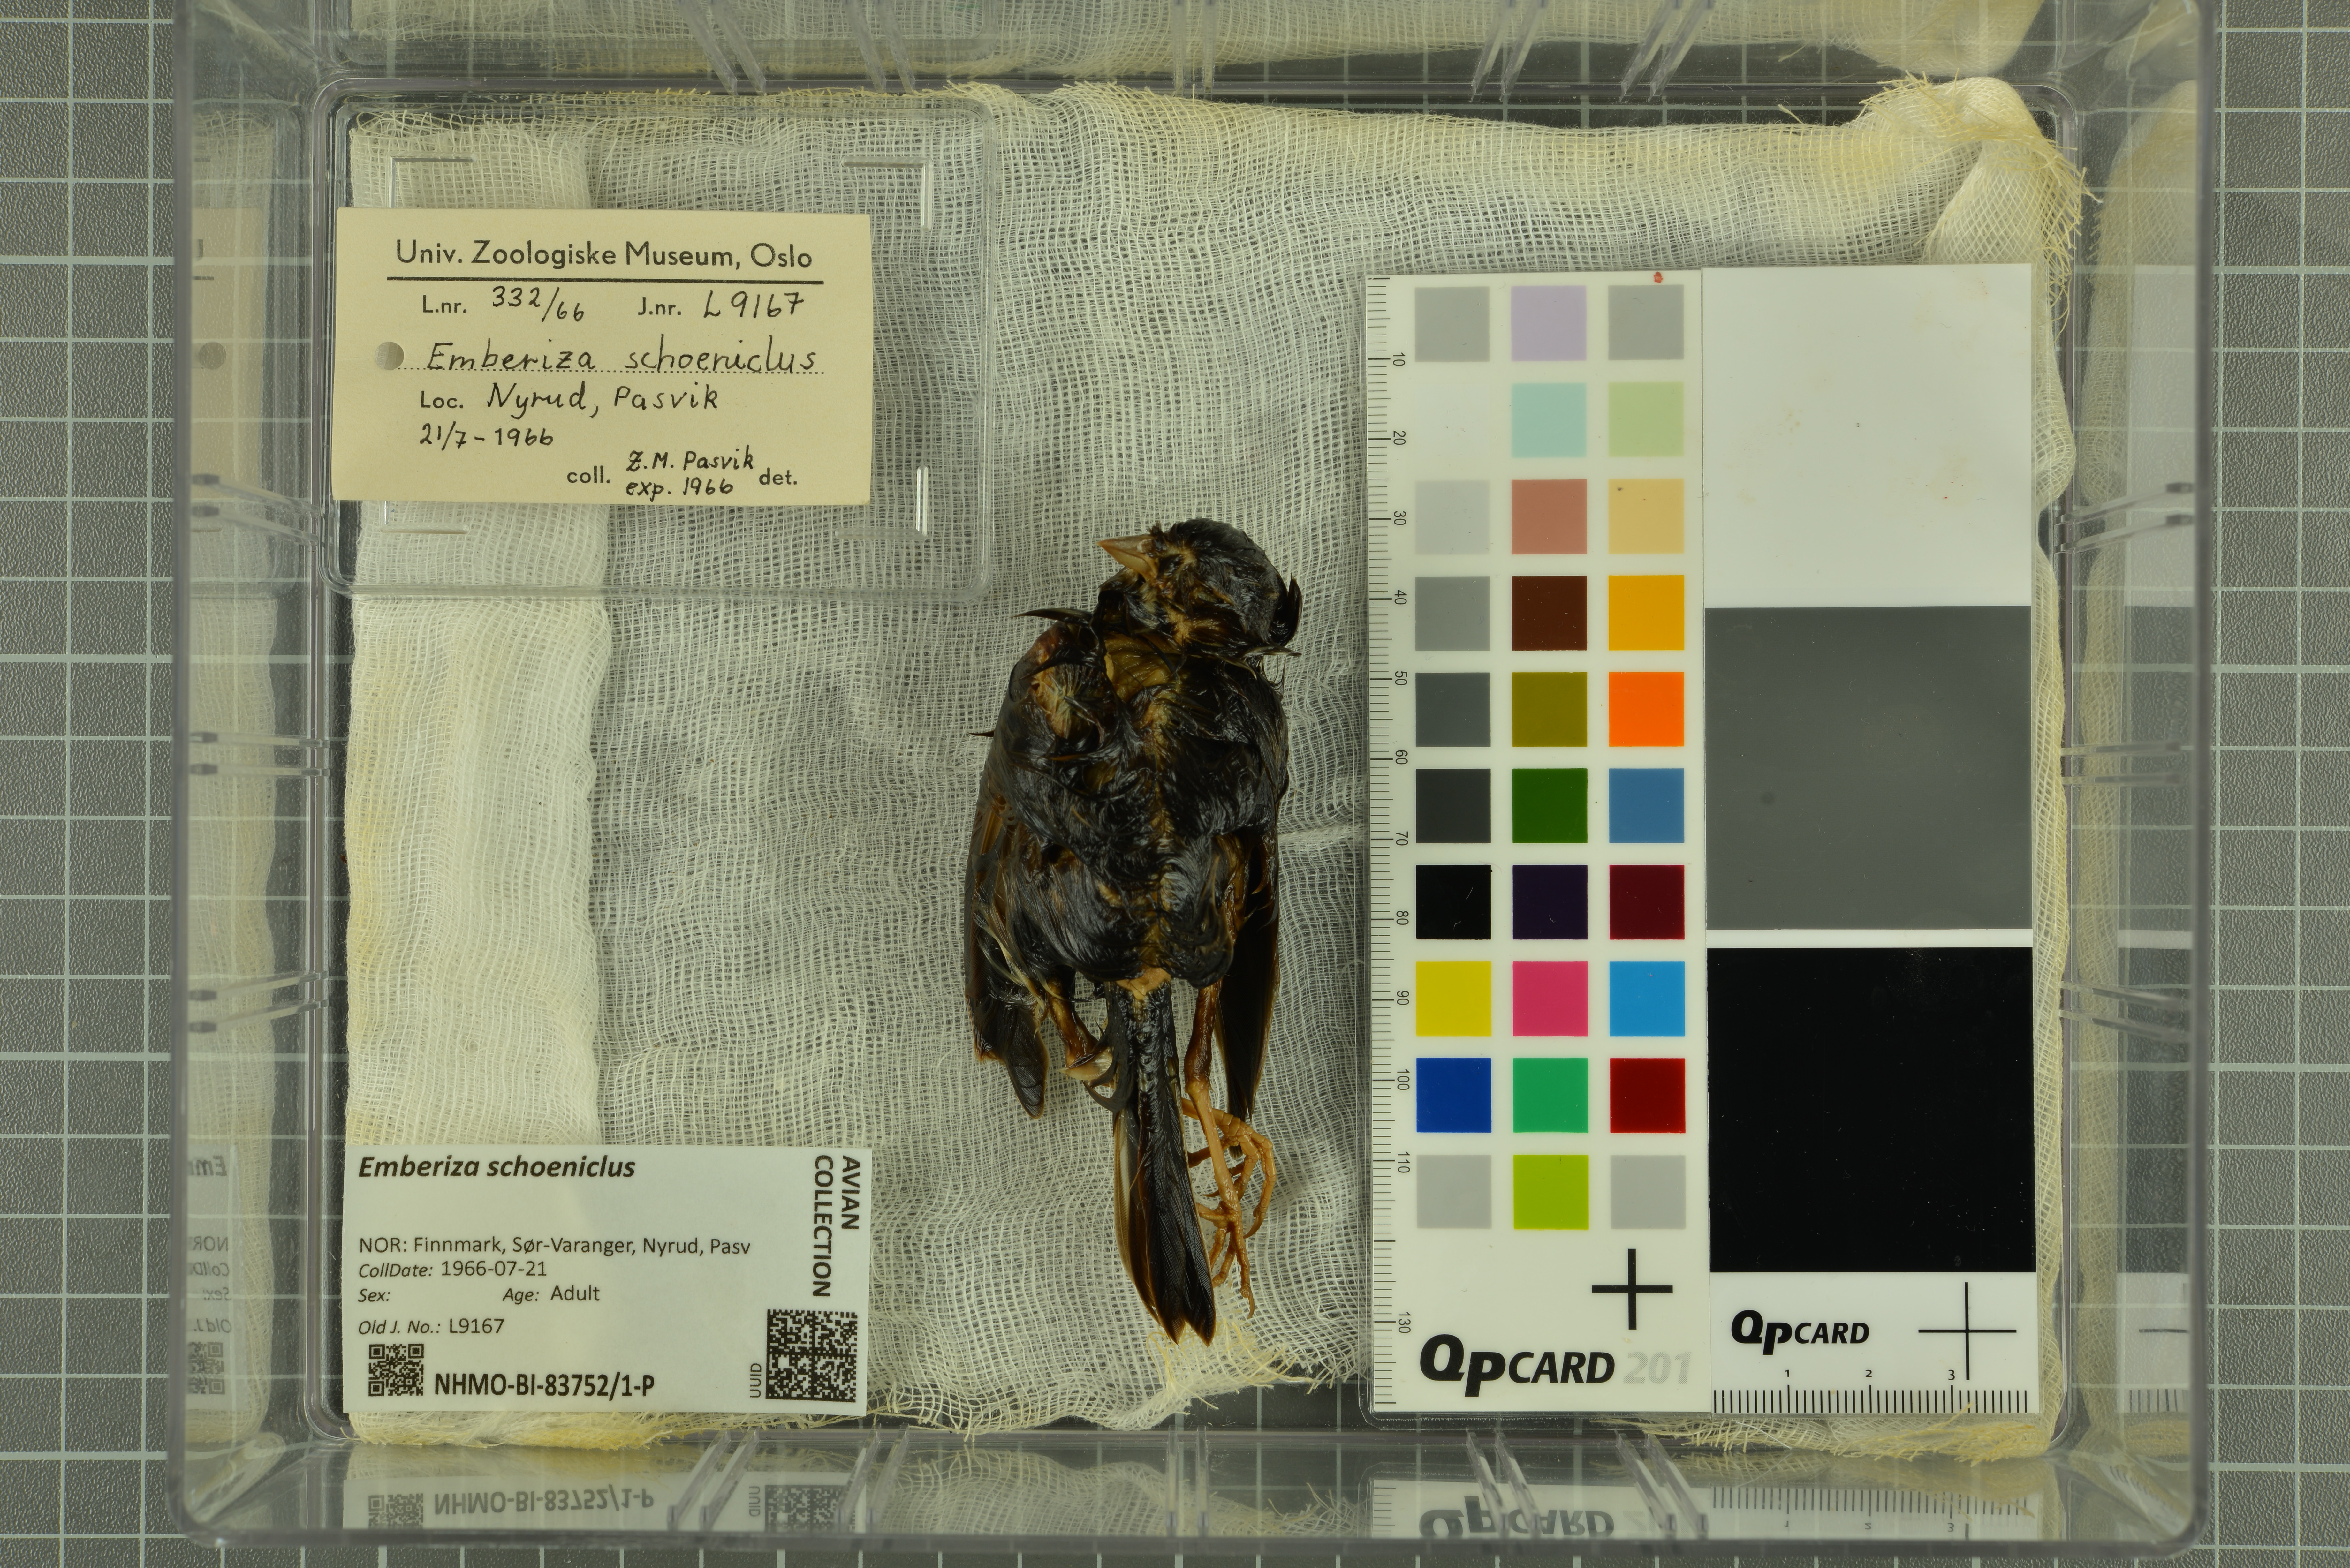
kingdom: Animalia
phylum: Chordata
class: Aves
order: Passeriformes
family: Emberizidae
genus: Emberiza
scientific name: Emberiza schoeniclus
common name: Reed bunting
